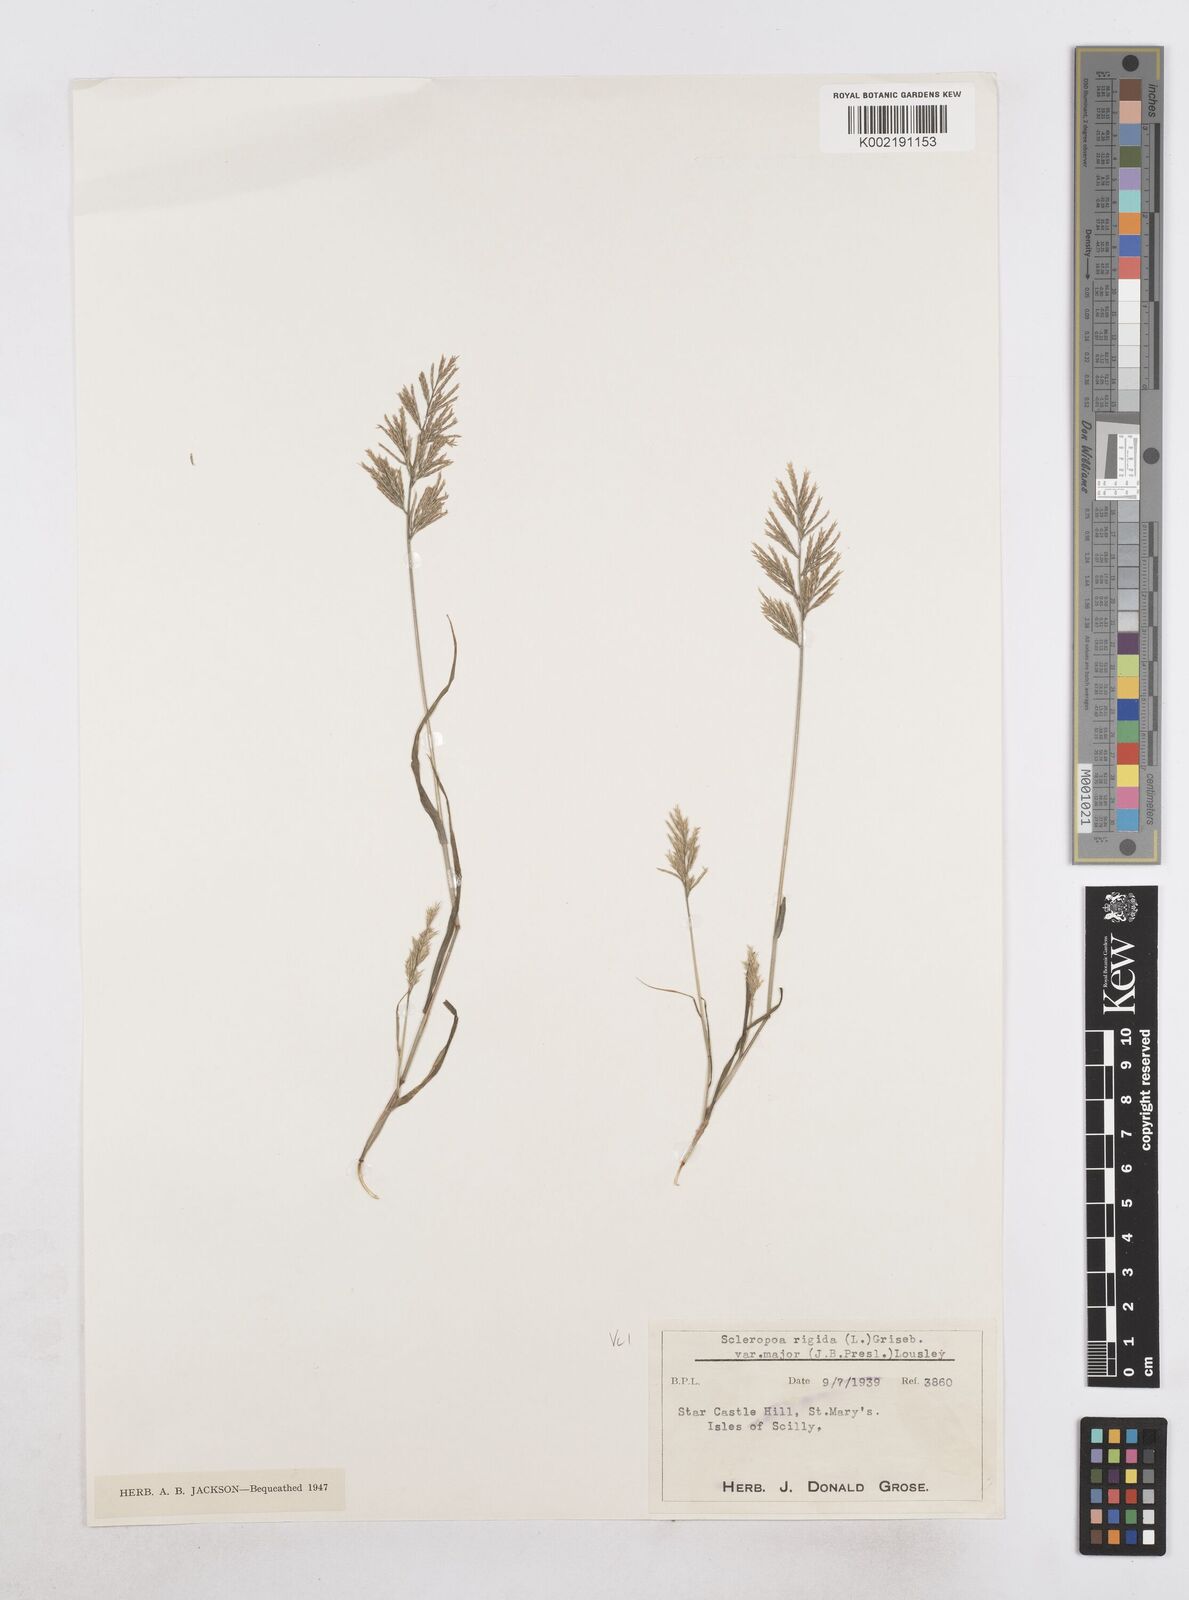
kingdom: Plantae
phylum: Tracheophyta
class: Liliopsida
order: Poales
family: Poaceae
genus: Catapodium
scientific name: Catapodium rigidum
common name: Fern-grass
